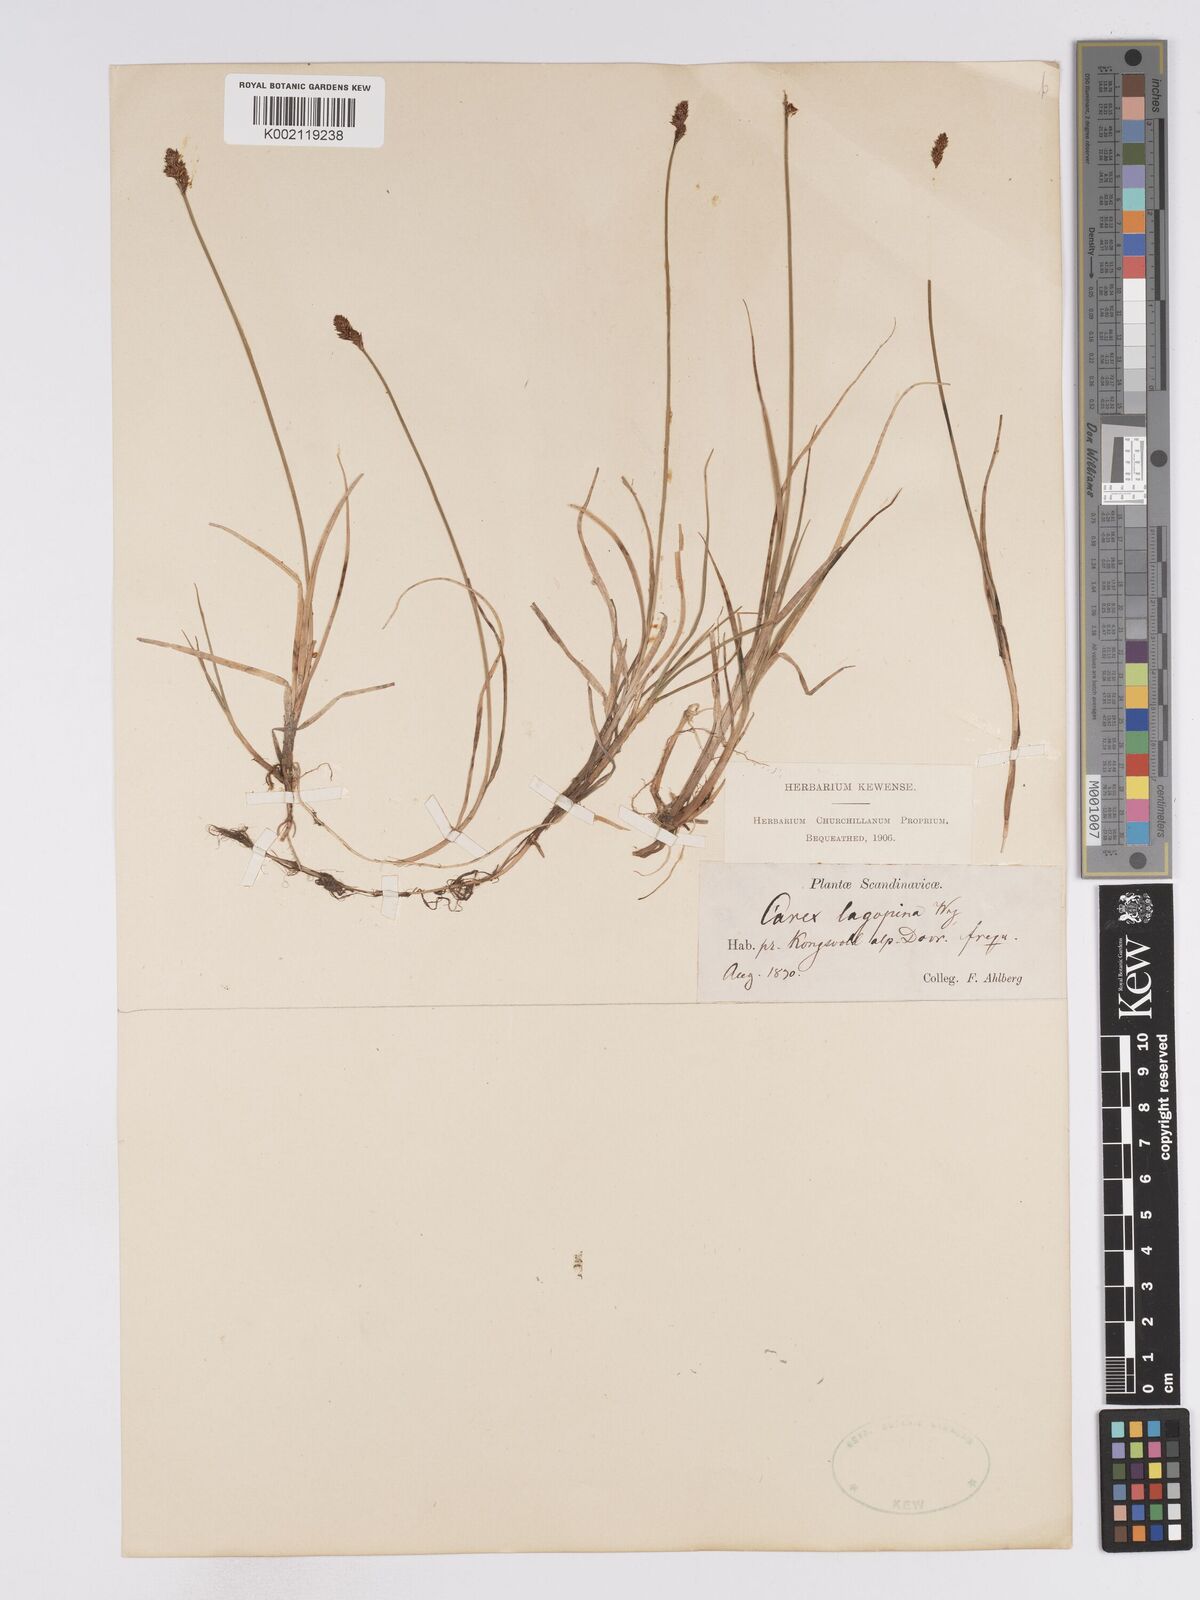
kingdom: Plantae
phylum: Tracheophyta
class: Liliopsida
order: Poales
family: Cyperaceae
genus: Carex
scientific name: Carex lachenalii
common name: Hare's-foot sedge
